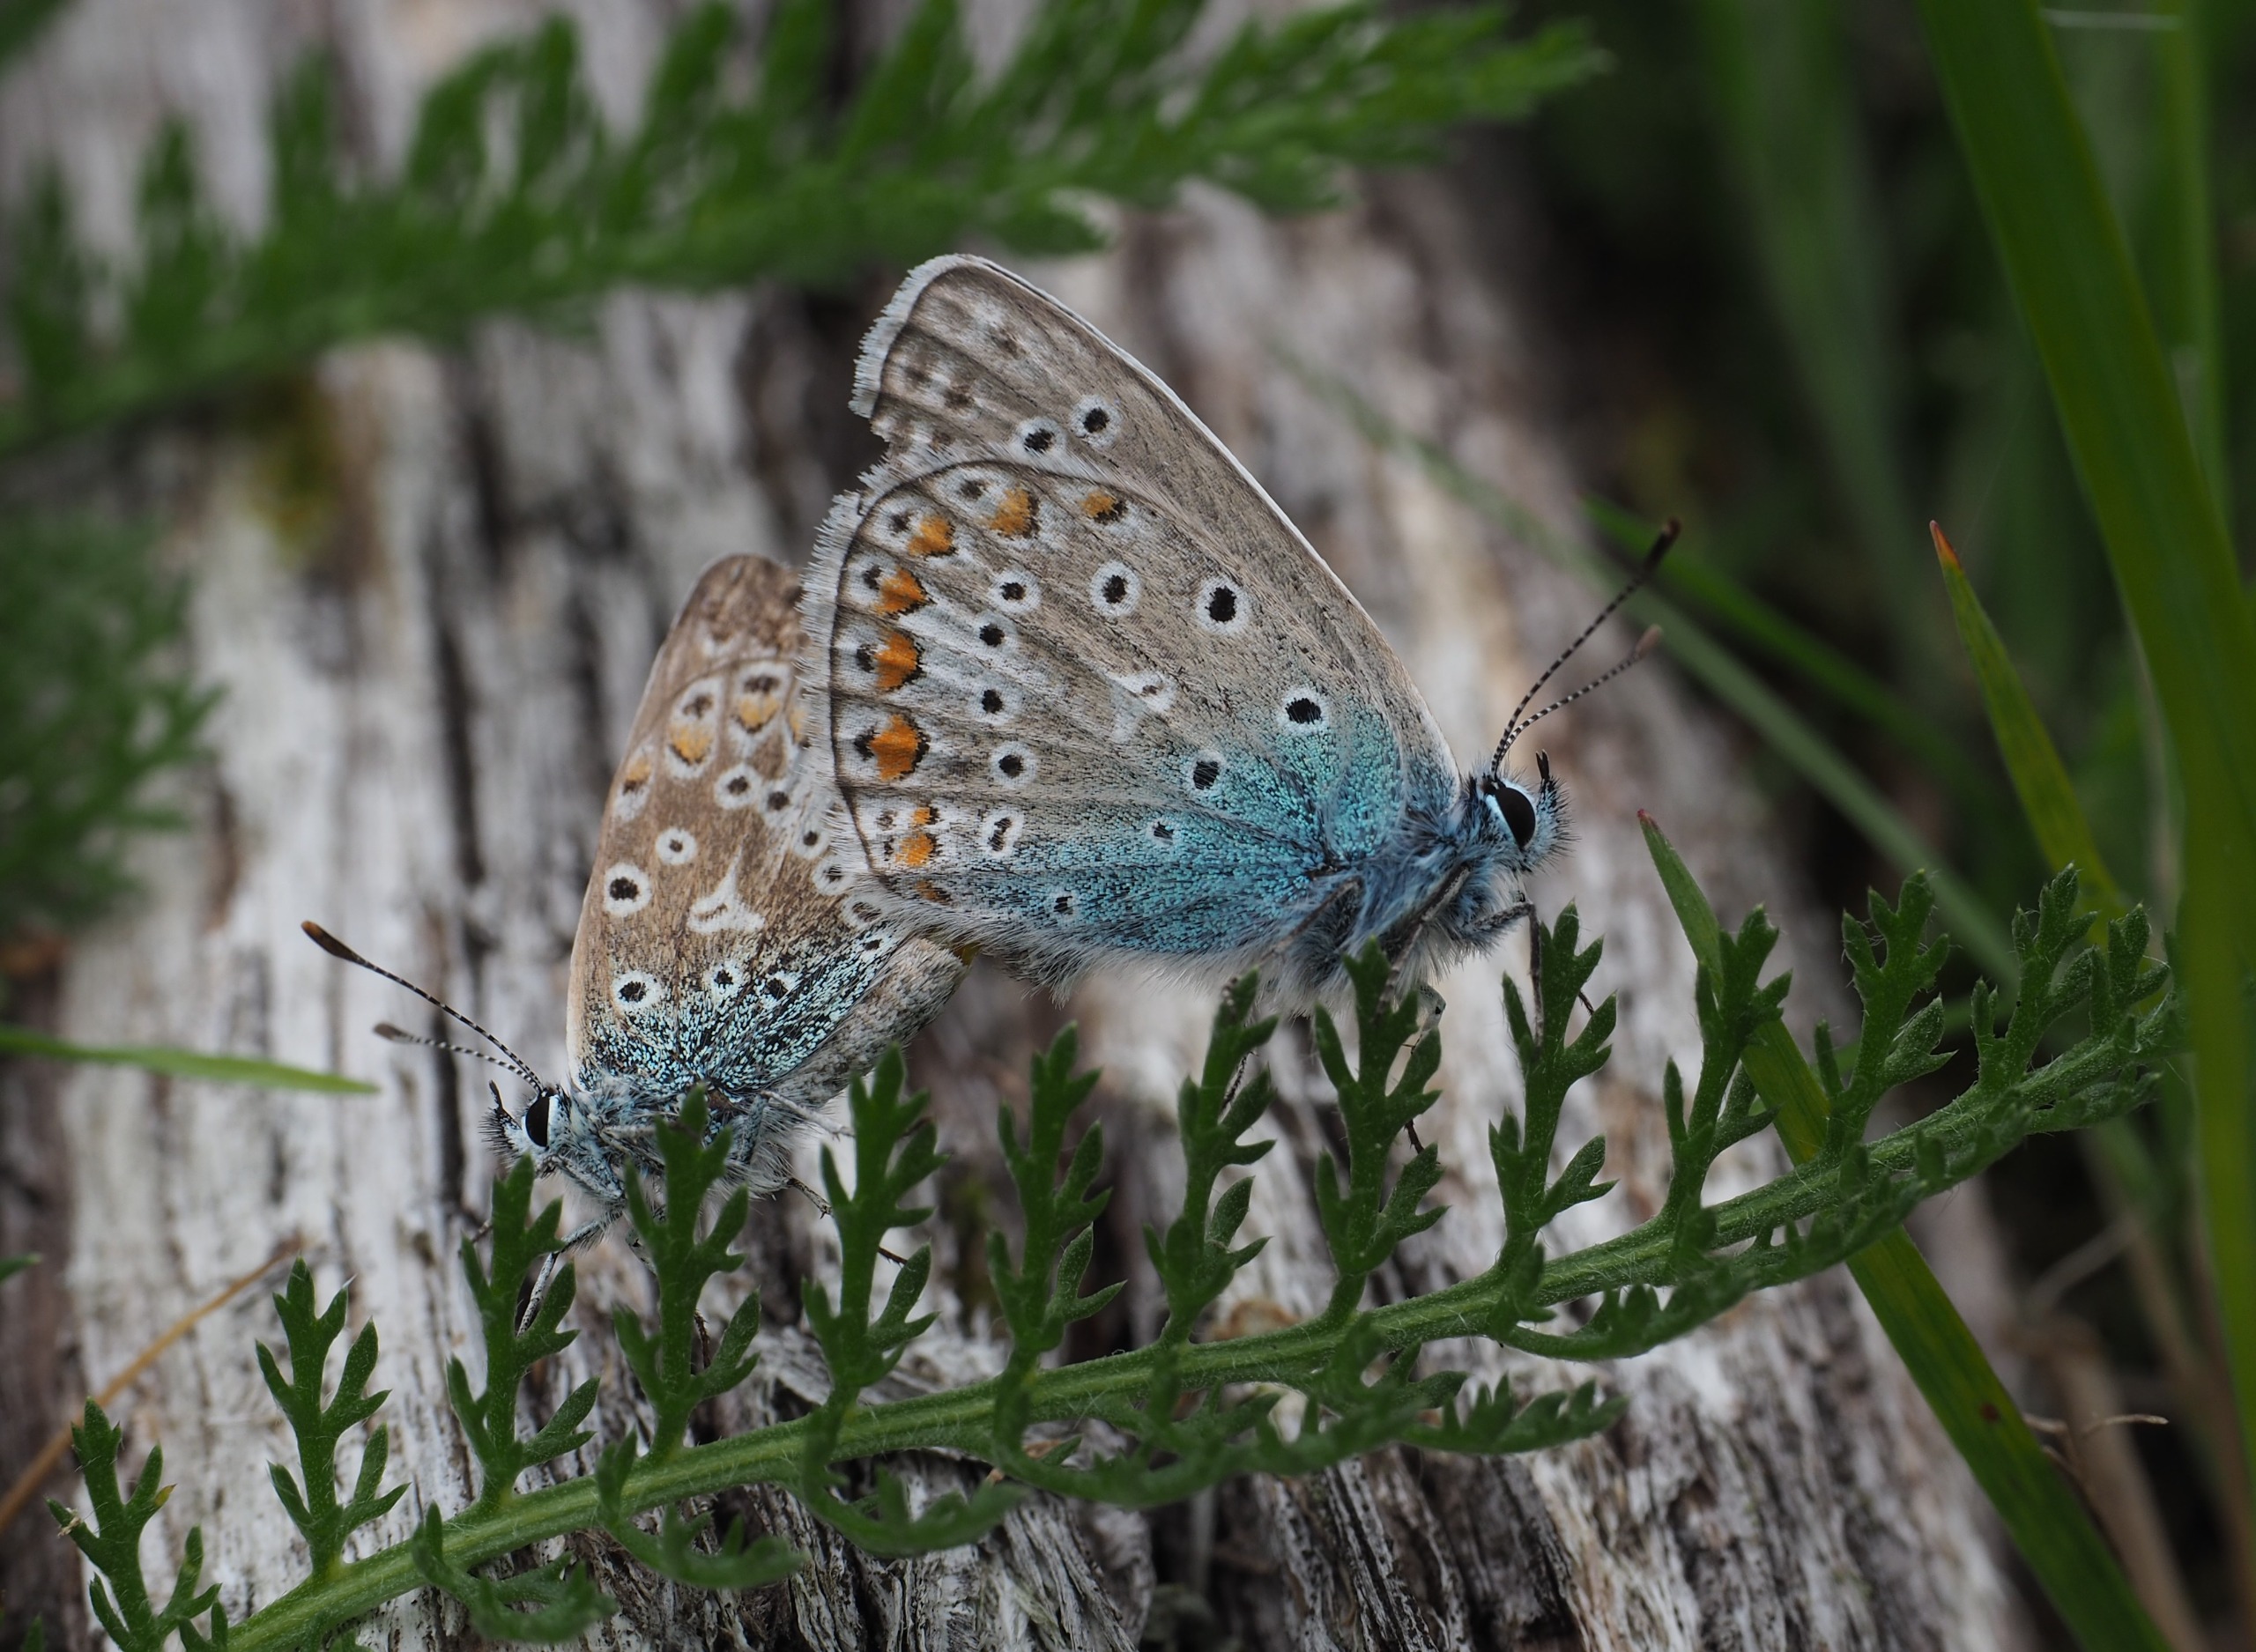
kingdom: Animalia
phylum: Arthropoda
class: Insecta
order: Lepidoptera
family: Lycaenidae
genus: Polyommatus
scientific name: Polyommatus icarus
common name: Almindelig blåfugl
